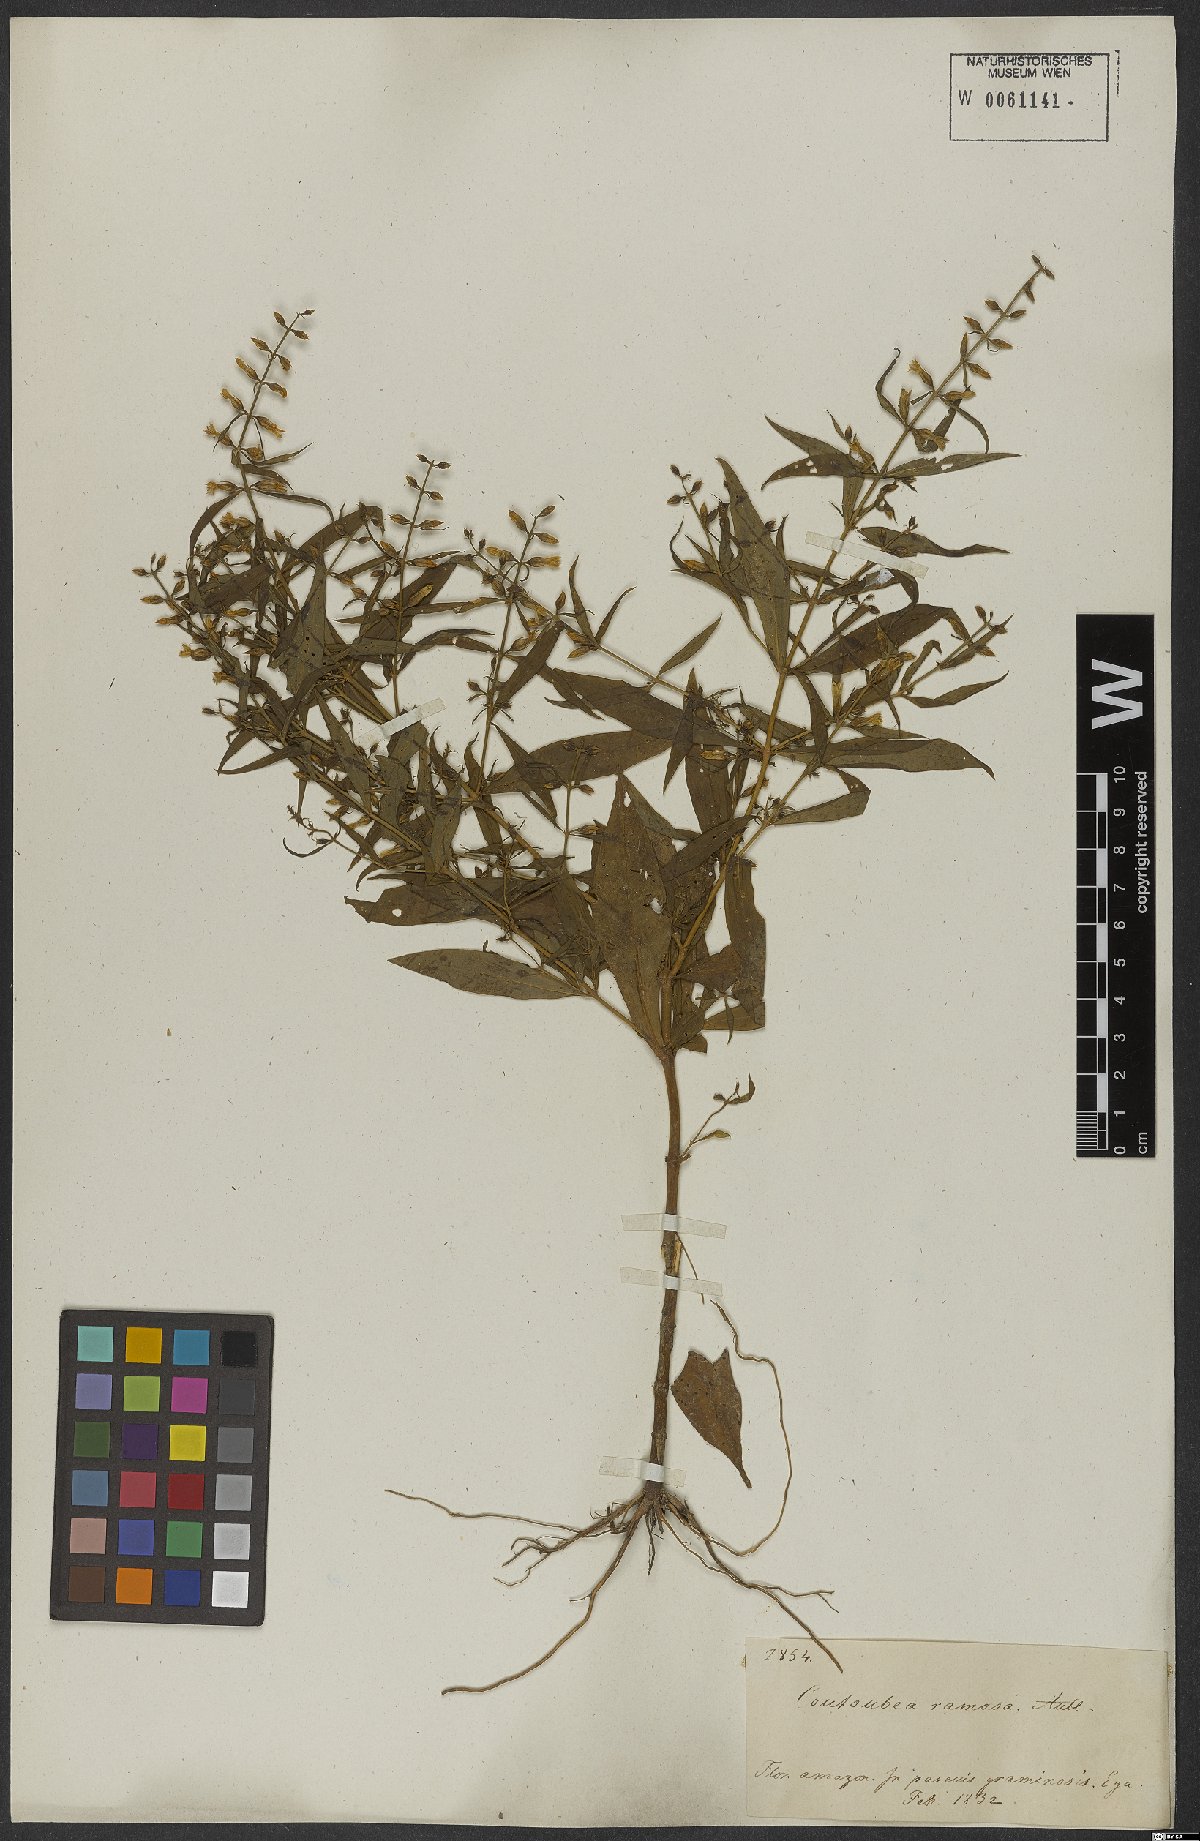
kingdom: Plantae
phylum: Tracheophyta
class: Magnoliopsida
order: Gentianales
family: Gentianaceae
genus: Coutoubea
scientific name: Coutoubea ramosa
